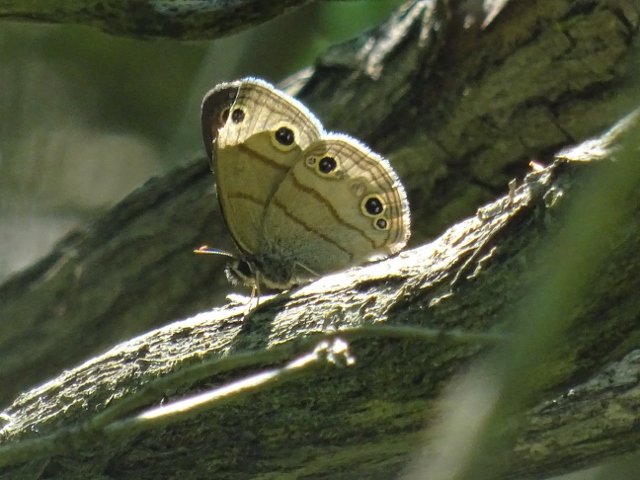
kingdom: Animalia
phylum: Arthropoda
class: Insecta
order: Lepidoptera
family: Nymphalidae
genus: Euptychia
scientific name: Euptychia cymela
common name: Little Wood Satyr
